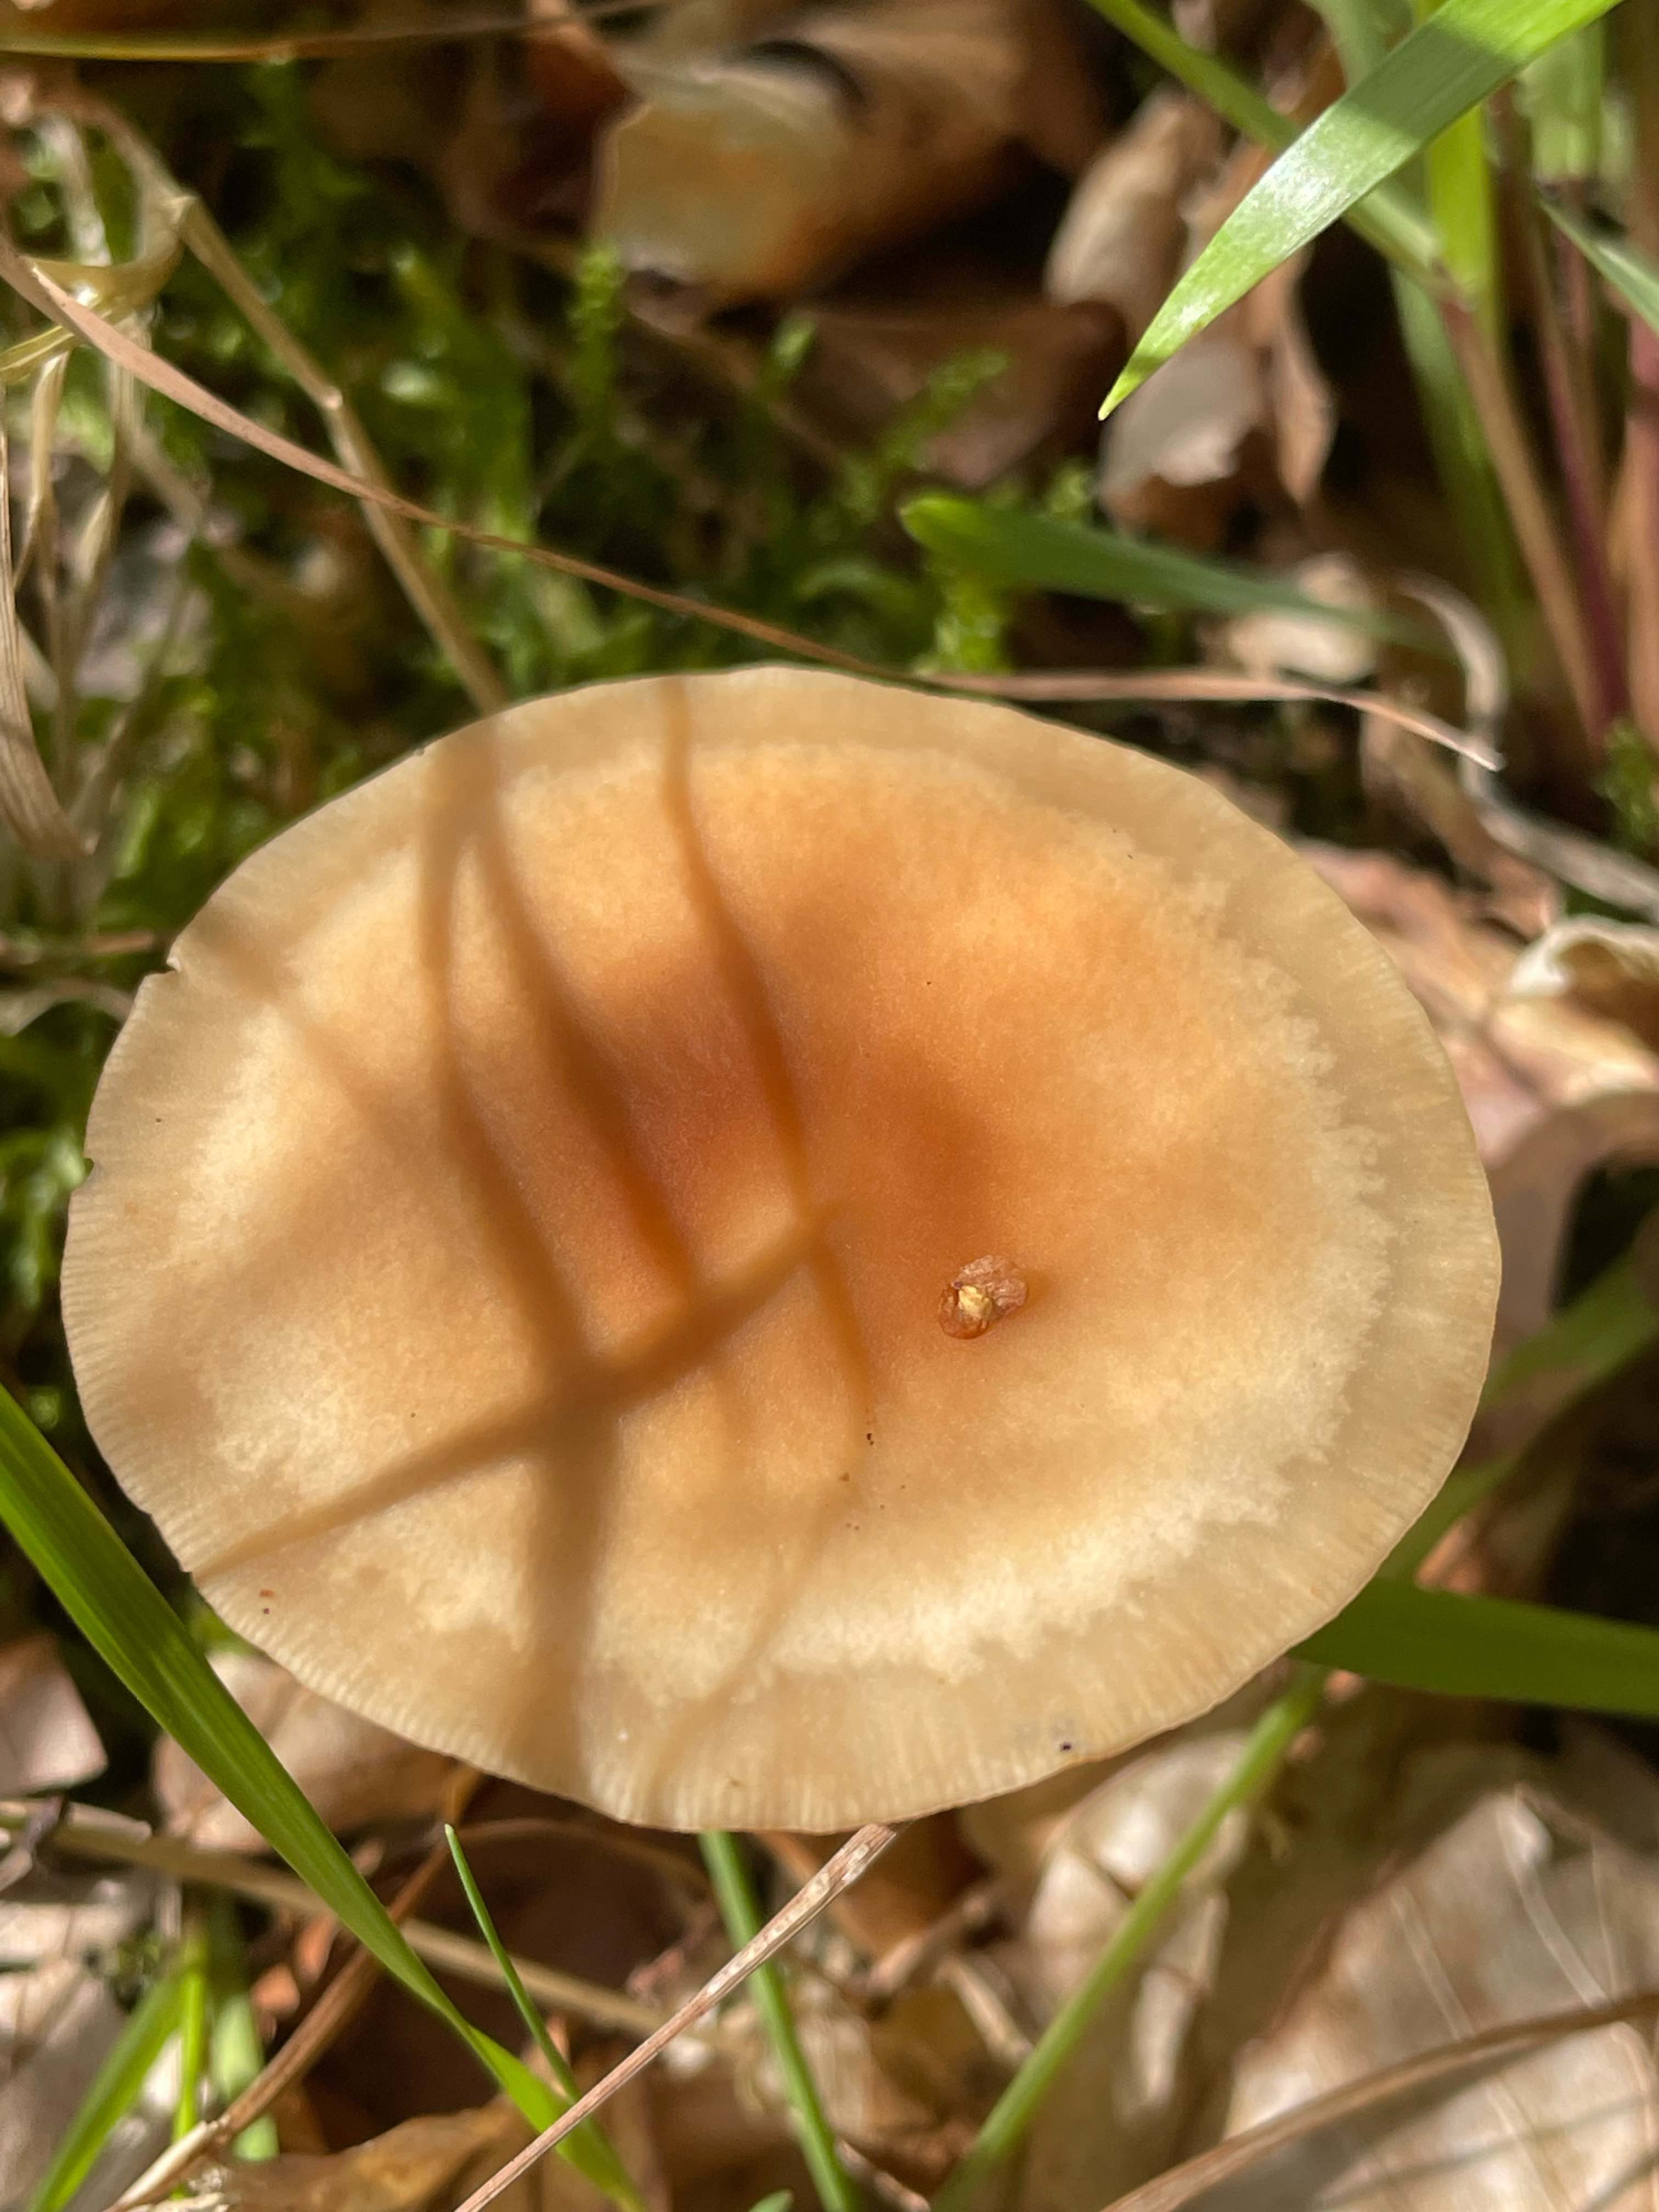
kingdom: Fungi
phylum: Basidiomycota
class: Agaricomycetes
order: Agaricales
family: Omphalotaceae
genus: Gymnopus
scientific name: Gymnopus dryophilus
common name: løv-fladhat
